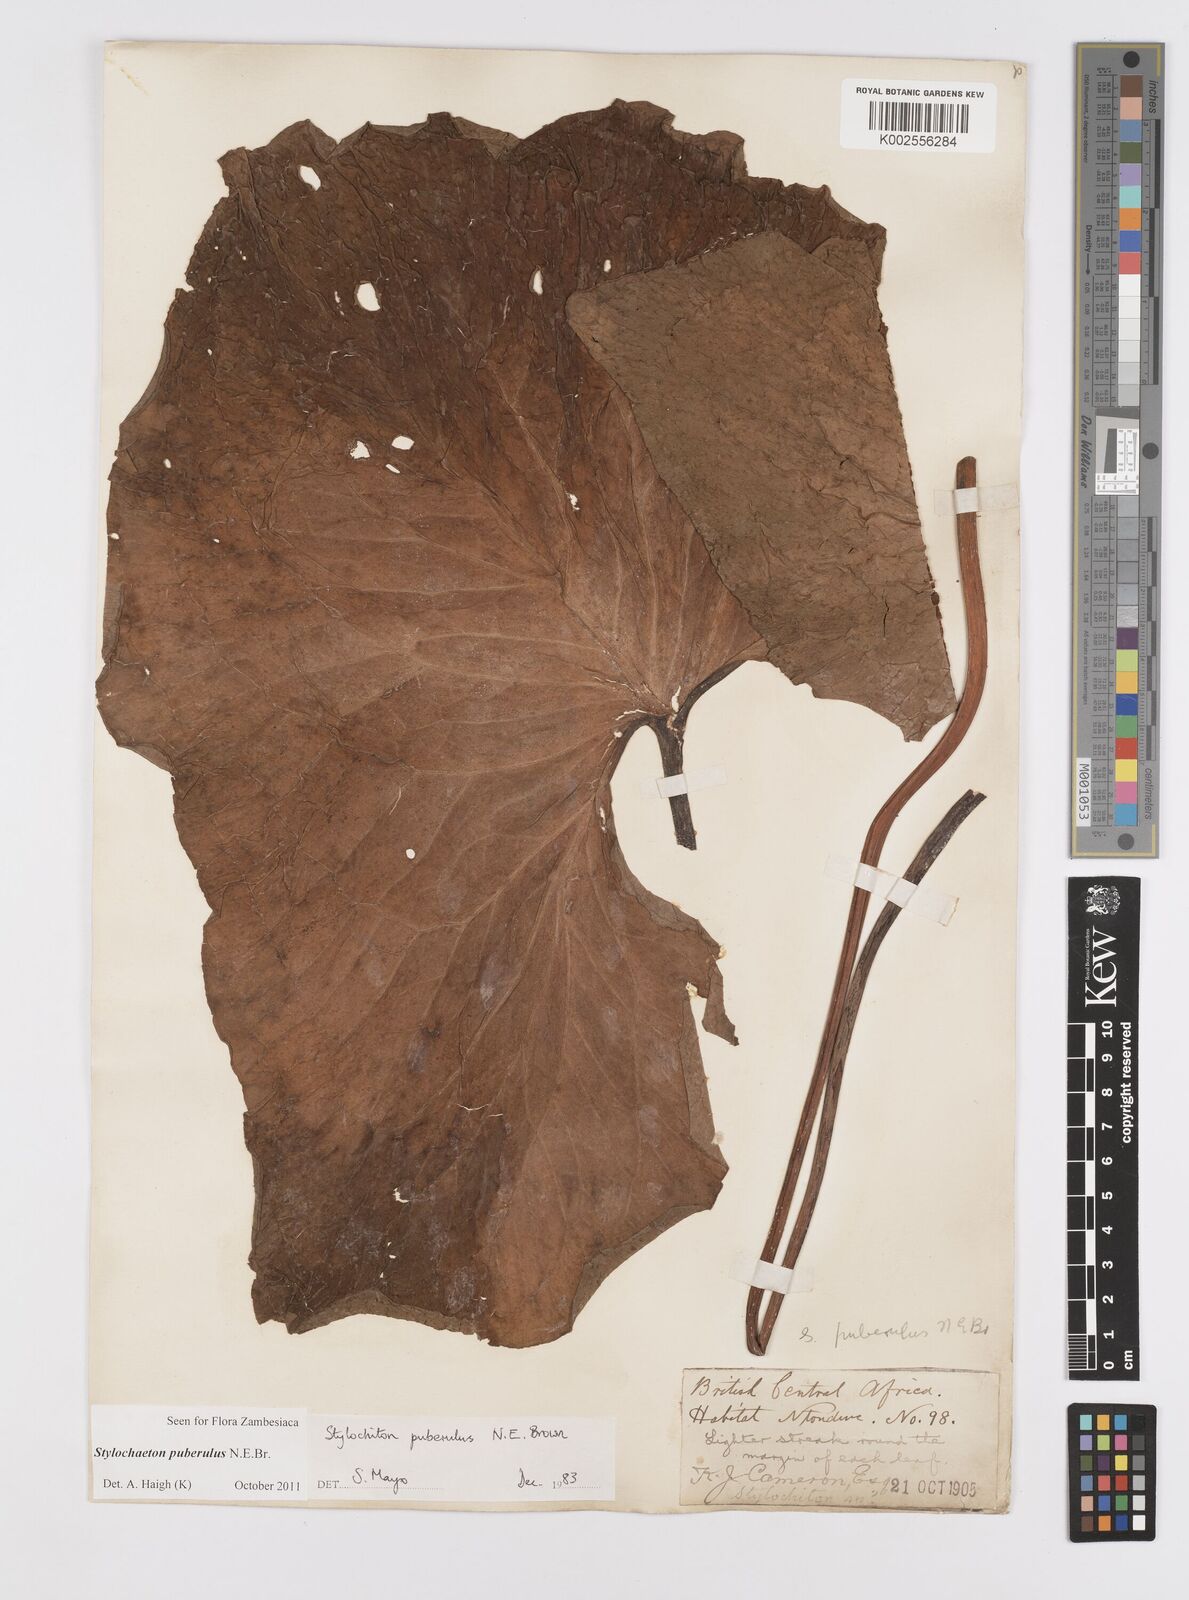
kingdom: Plantae
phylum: Tracheophyta
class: Liliopsida
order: Alismatales
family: Araceae
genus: Stylochaeton
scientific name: Stylochaeton puberulum
